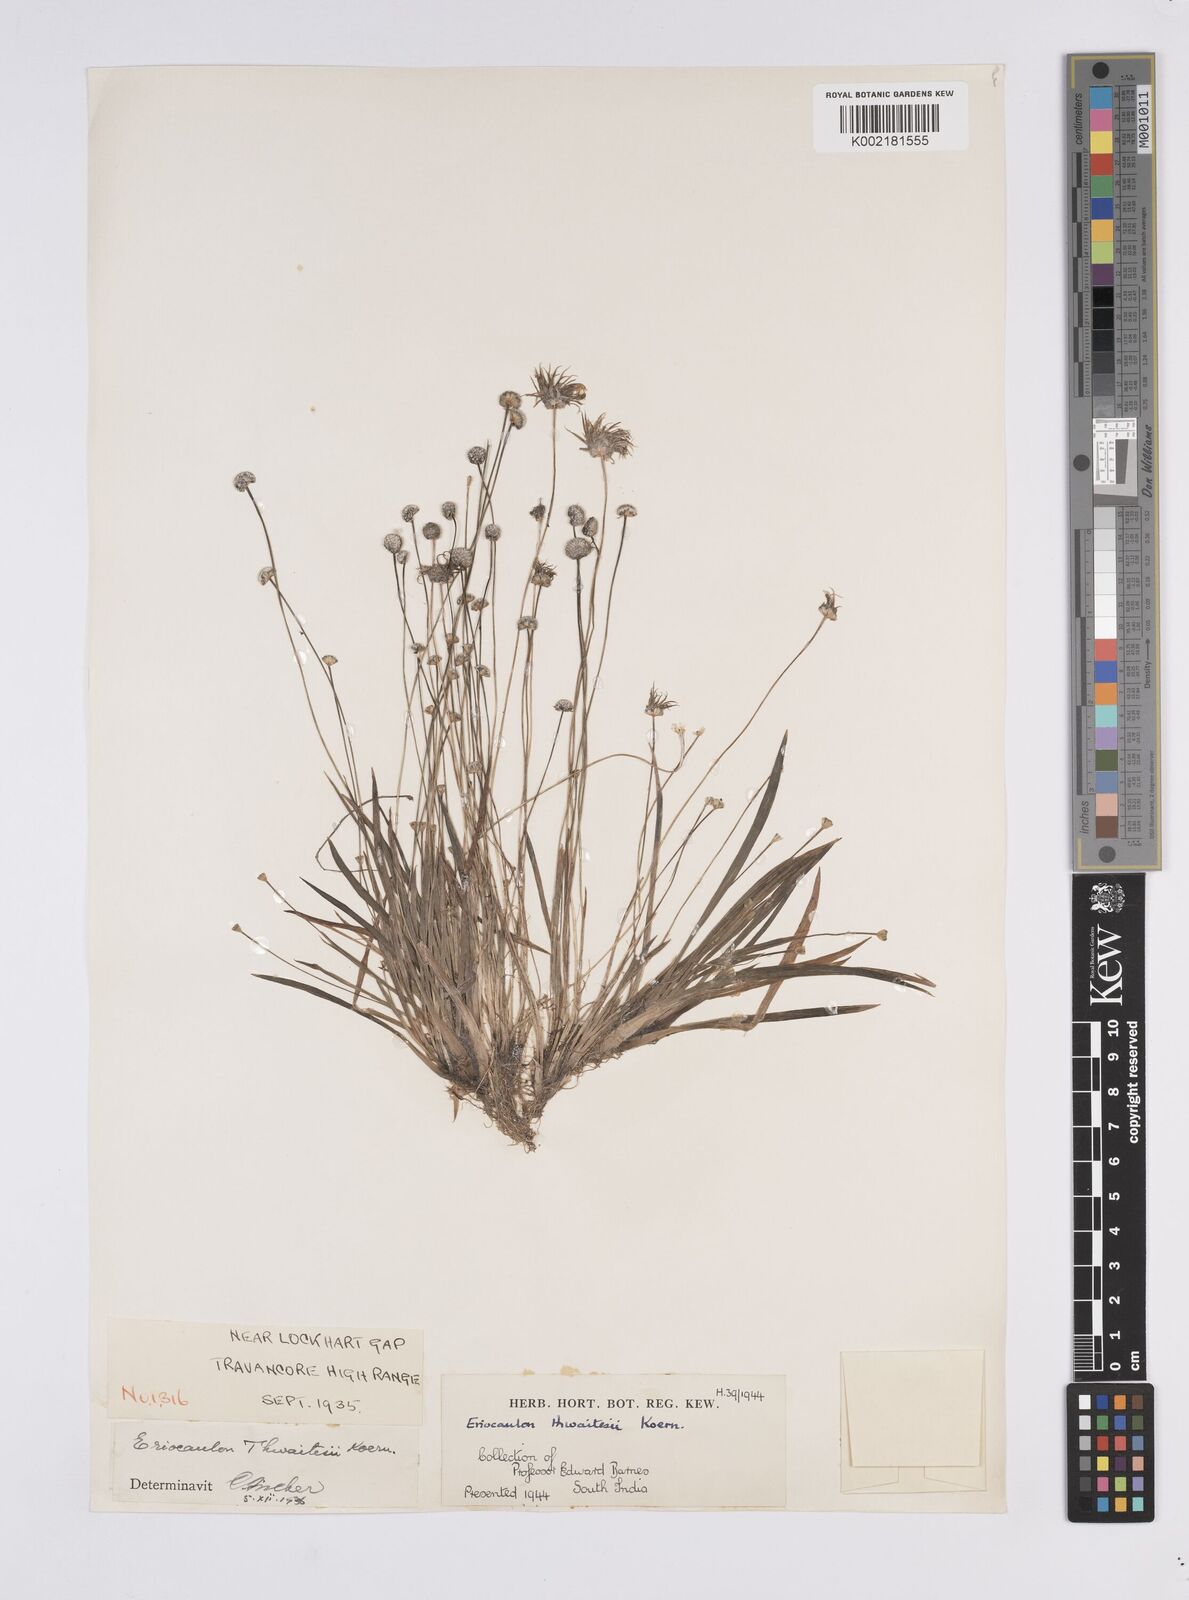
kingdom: Plantae
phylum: Tracheophyta
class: Liliopsida
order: Poales
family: Eriocaulaceae
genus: Eriocaulon
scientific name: Eriocaulon thwaitesii
